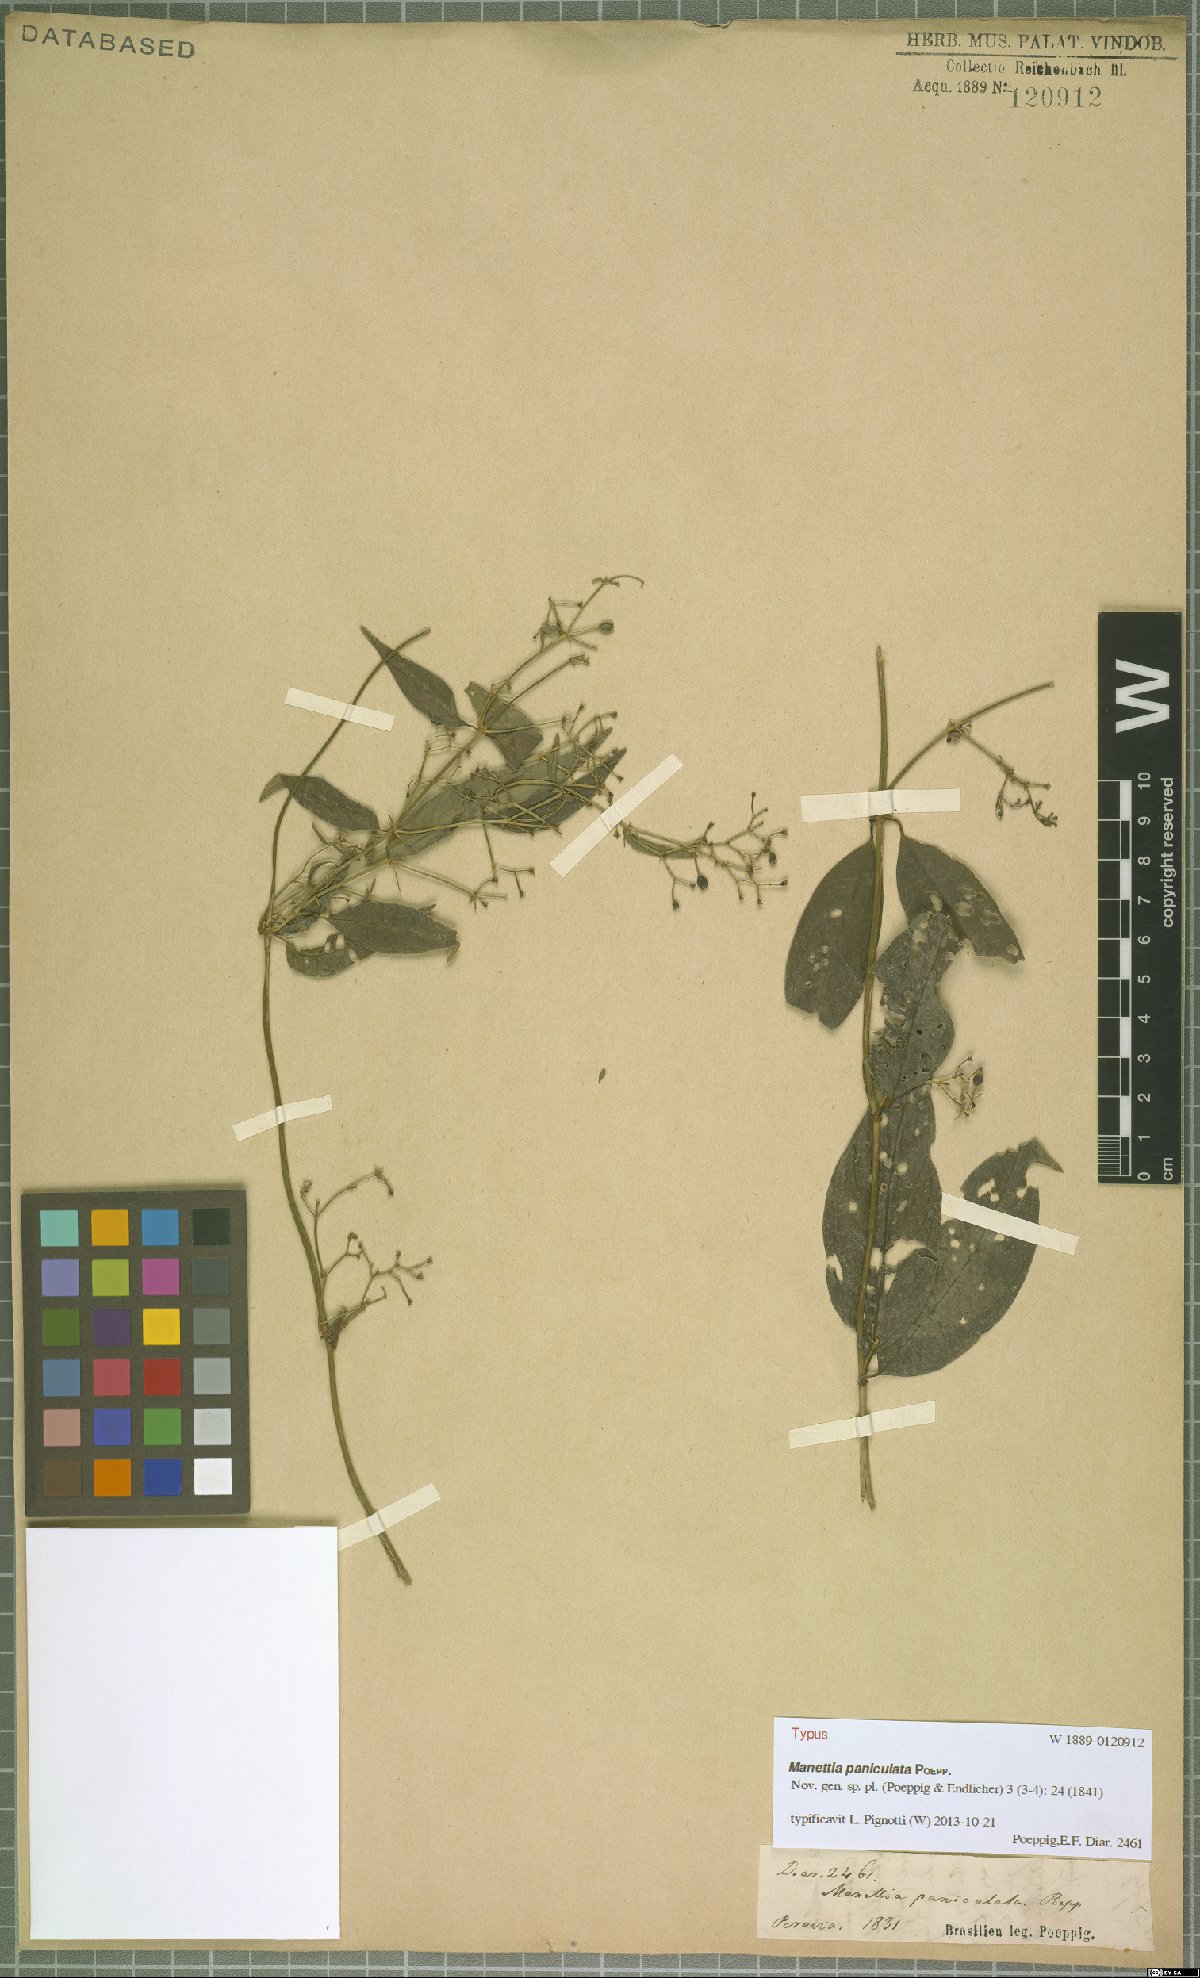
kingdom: Plantae
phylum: Tracheophyta
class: Magnoliopsida
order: Gentianales
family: Rubiaceae
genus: Manettia
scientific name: Manettia paniculata
